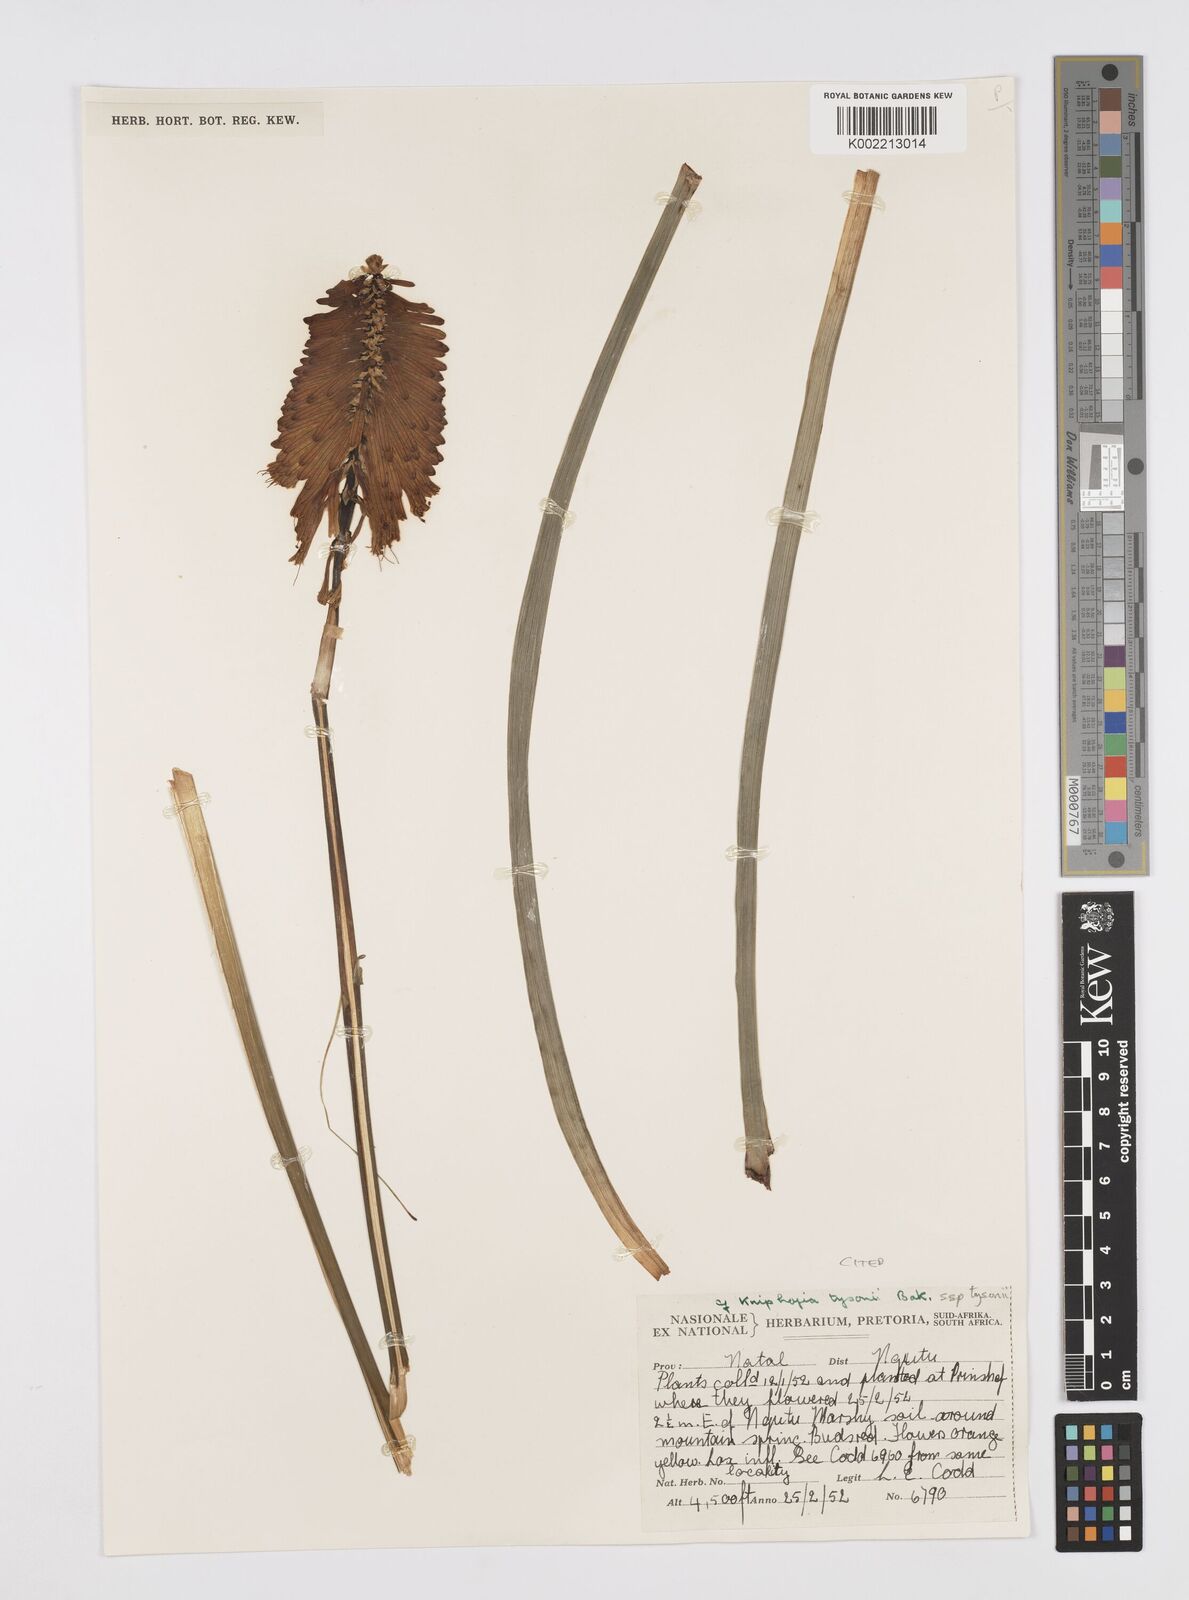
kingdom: Plantae
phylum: Tracheophyta
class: Liliopsida
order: Asparagales
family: Asphodelaceae
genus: Kniphofia
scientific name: Kniphofia tysonii
